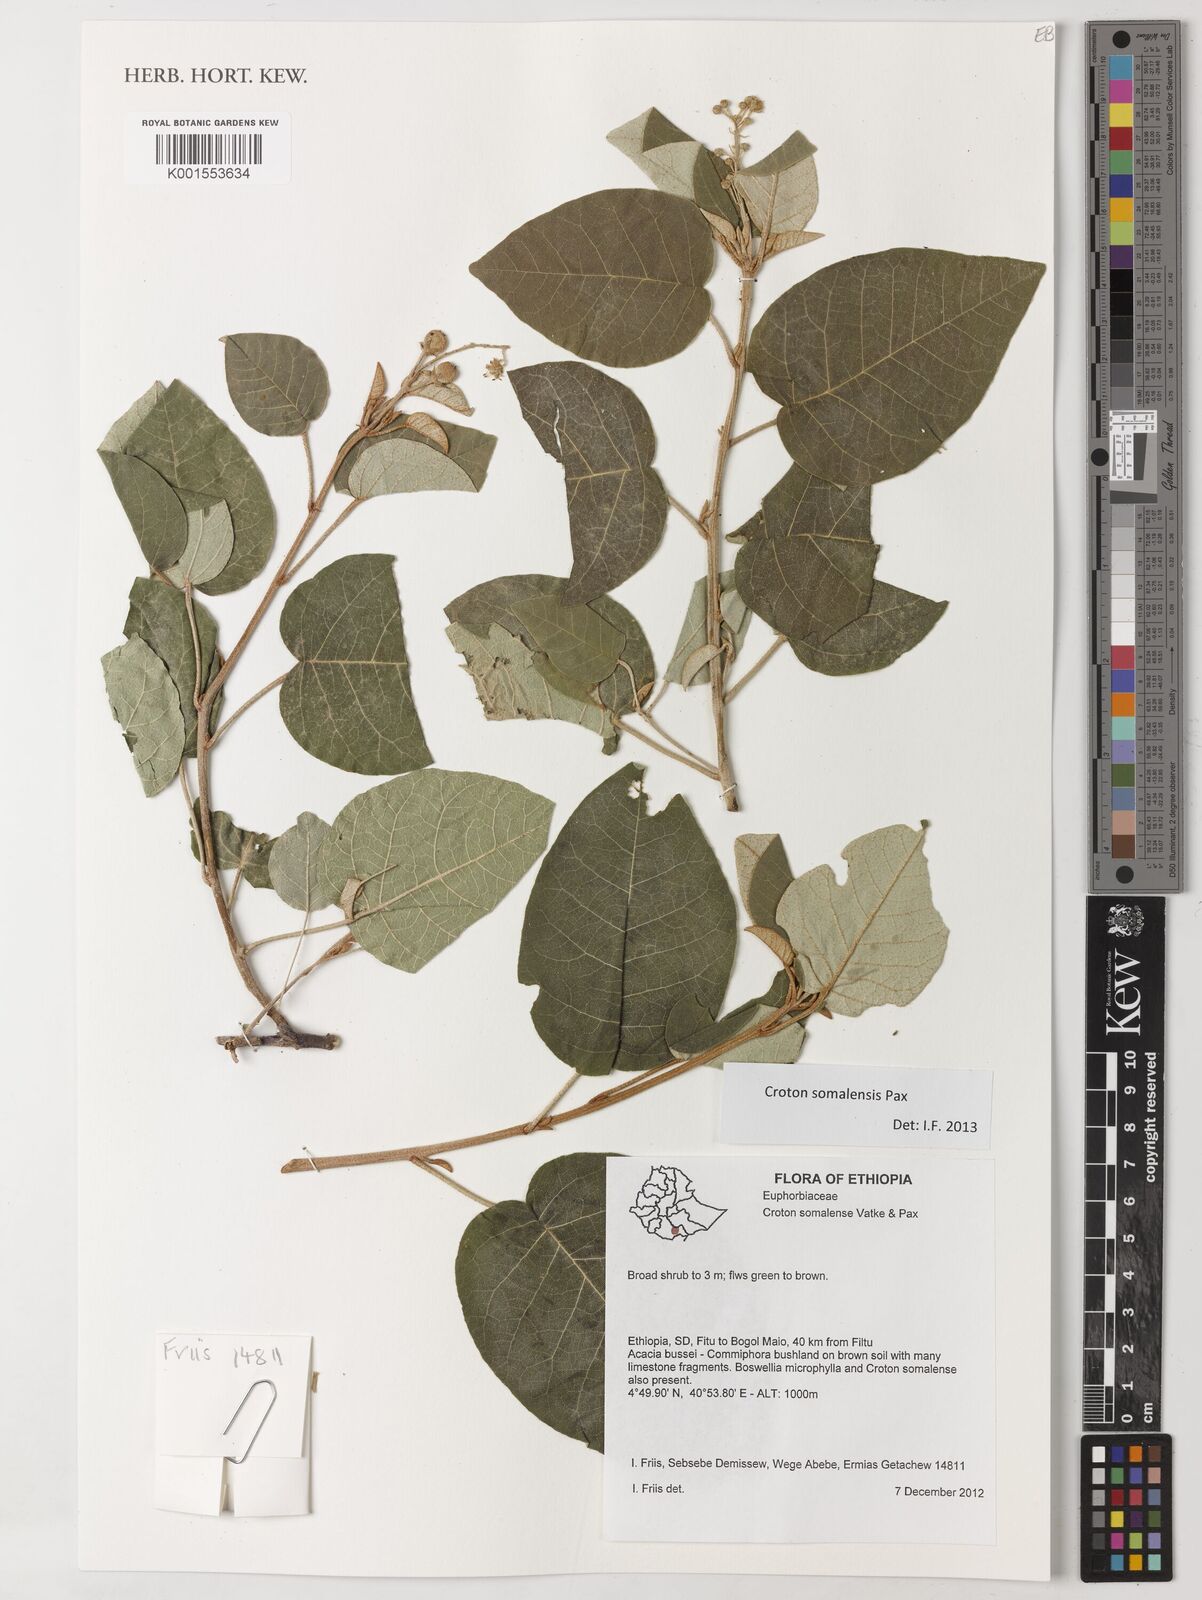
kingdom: Plantae
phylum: Tracheophyta
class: Magnoliopsida
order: Malpighiales
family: Euphorbiaceae
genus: Croton
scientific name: Croton somalensis
